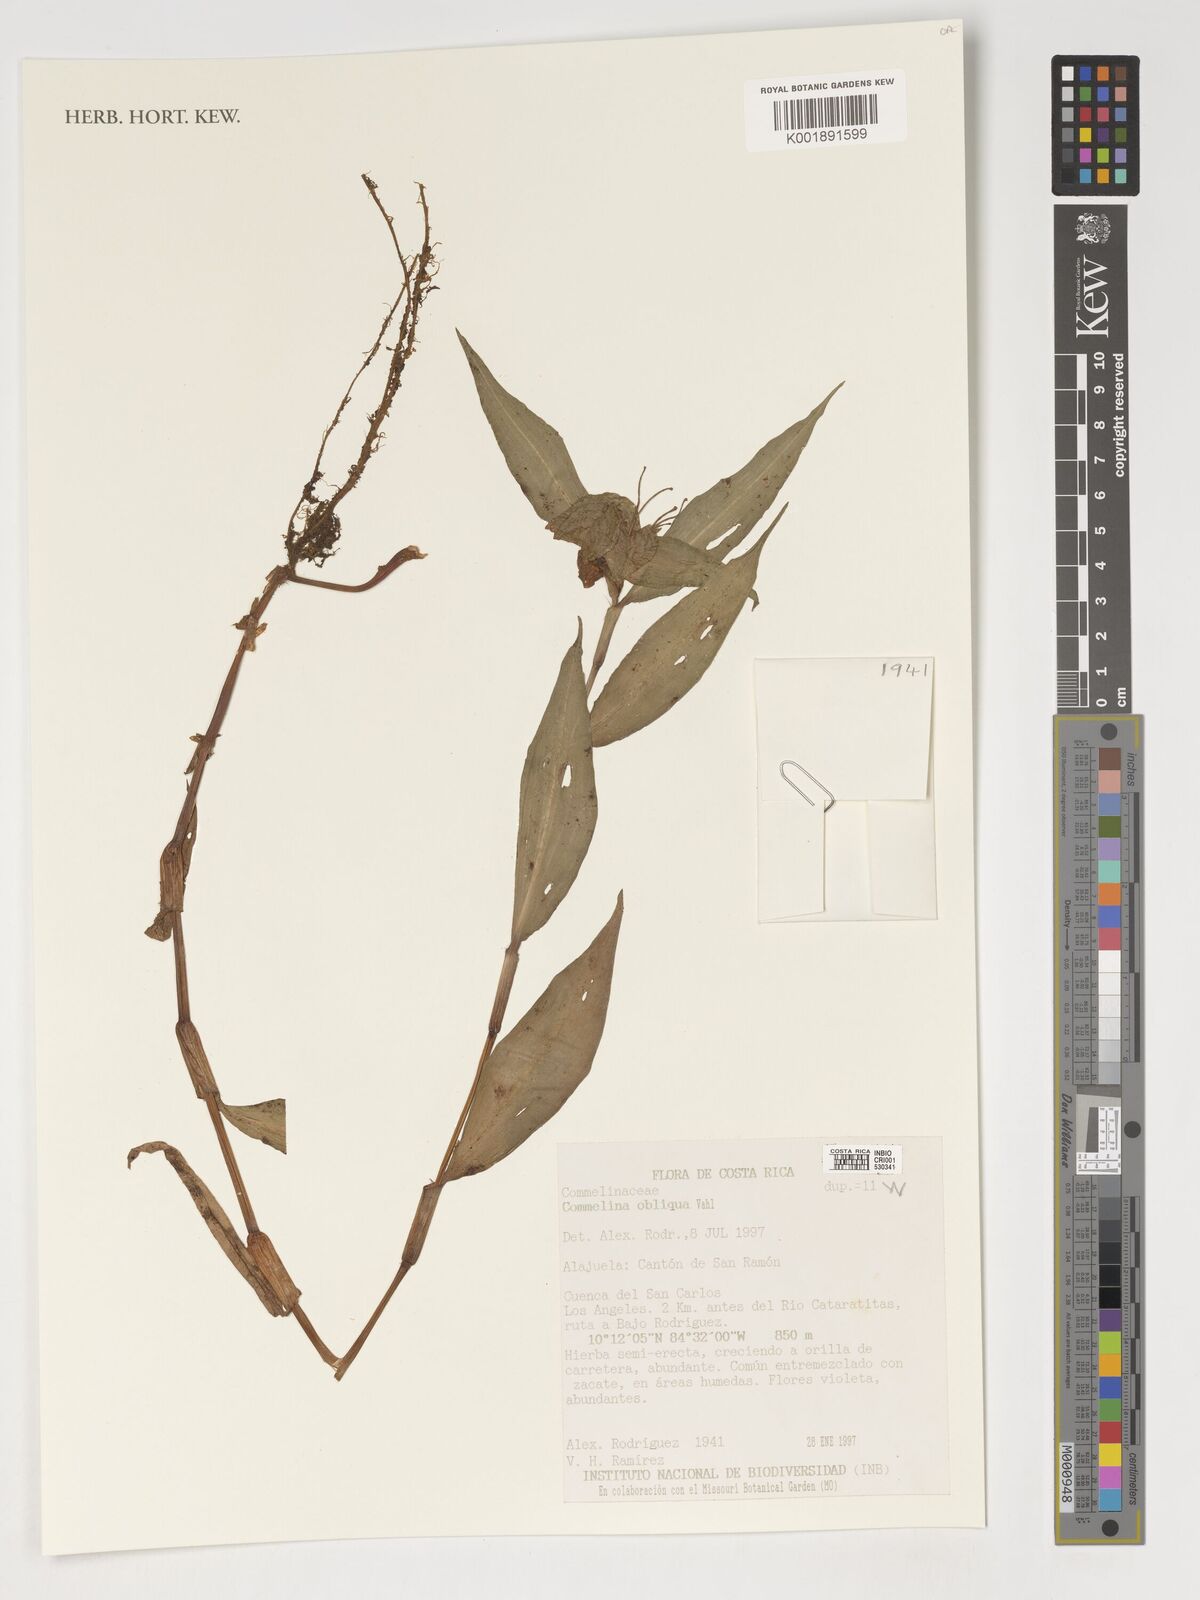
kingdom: Plantae
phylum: Tracheophyta
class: Liliopsida
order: Commelinales
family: Commelinaceae
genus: Commelina
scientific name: Commelina obliqua
